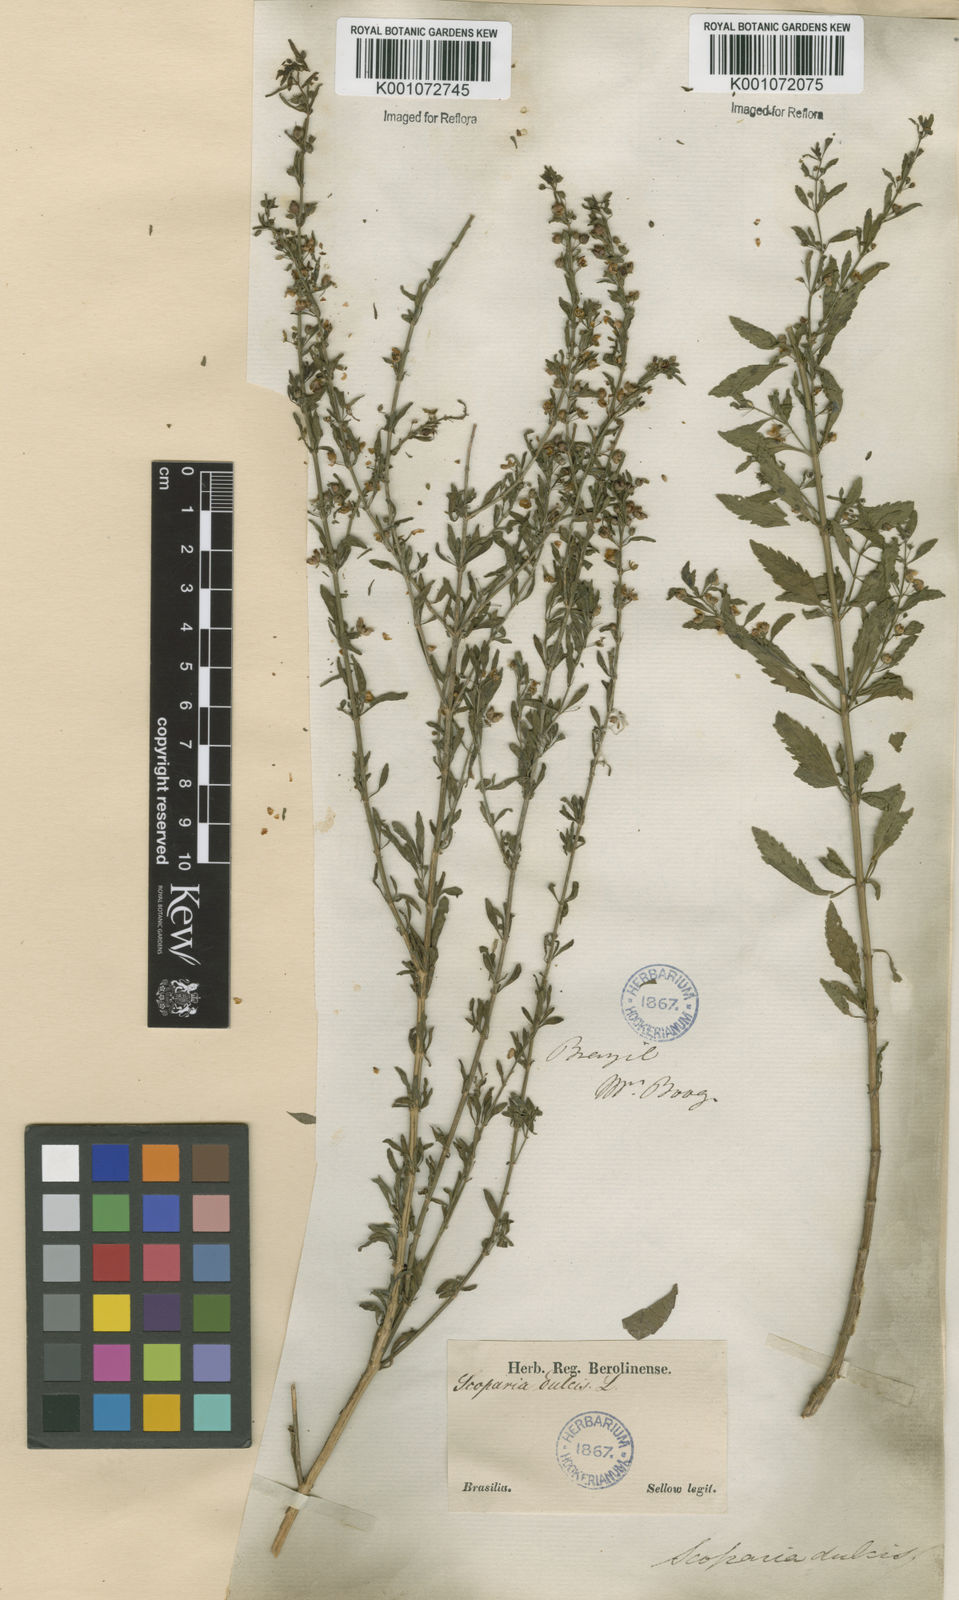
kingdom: Plantae
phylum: Tracheophyta
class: Magnoliopsida
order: Lamiales
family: Plantaginaceae
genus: Scoparia
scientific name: Scoparia dulcis
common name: Scoparia-weed
